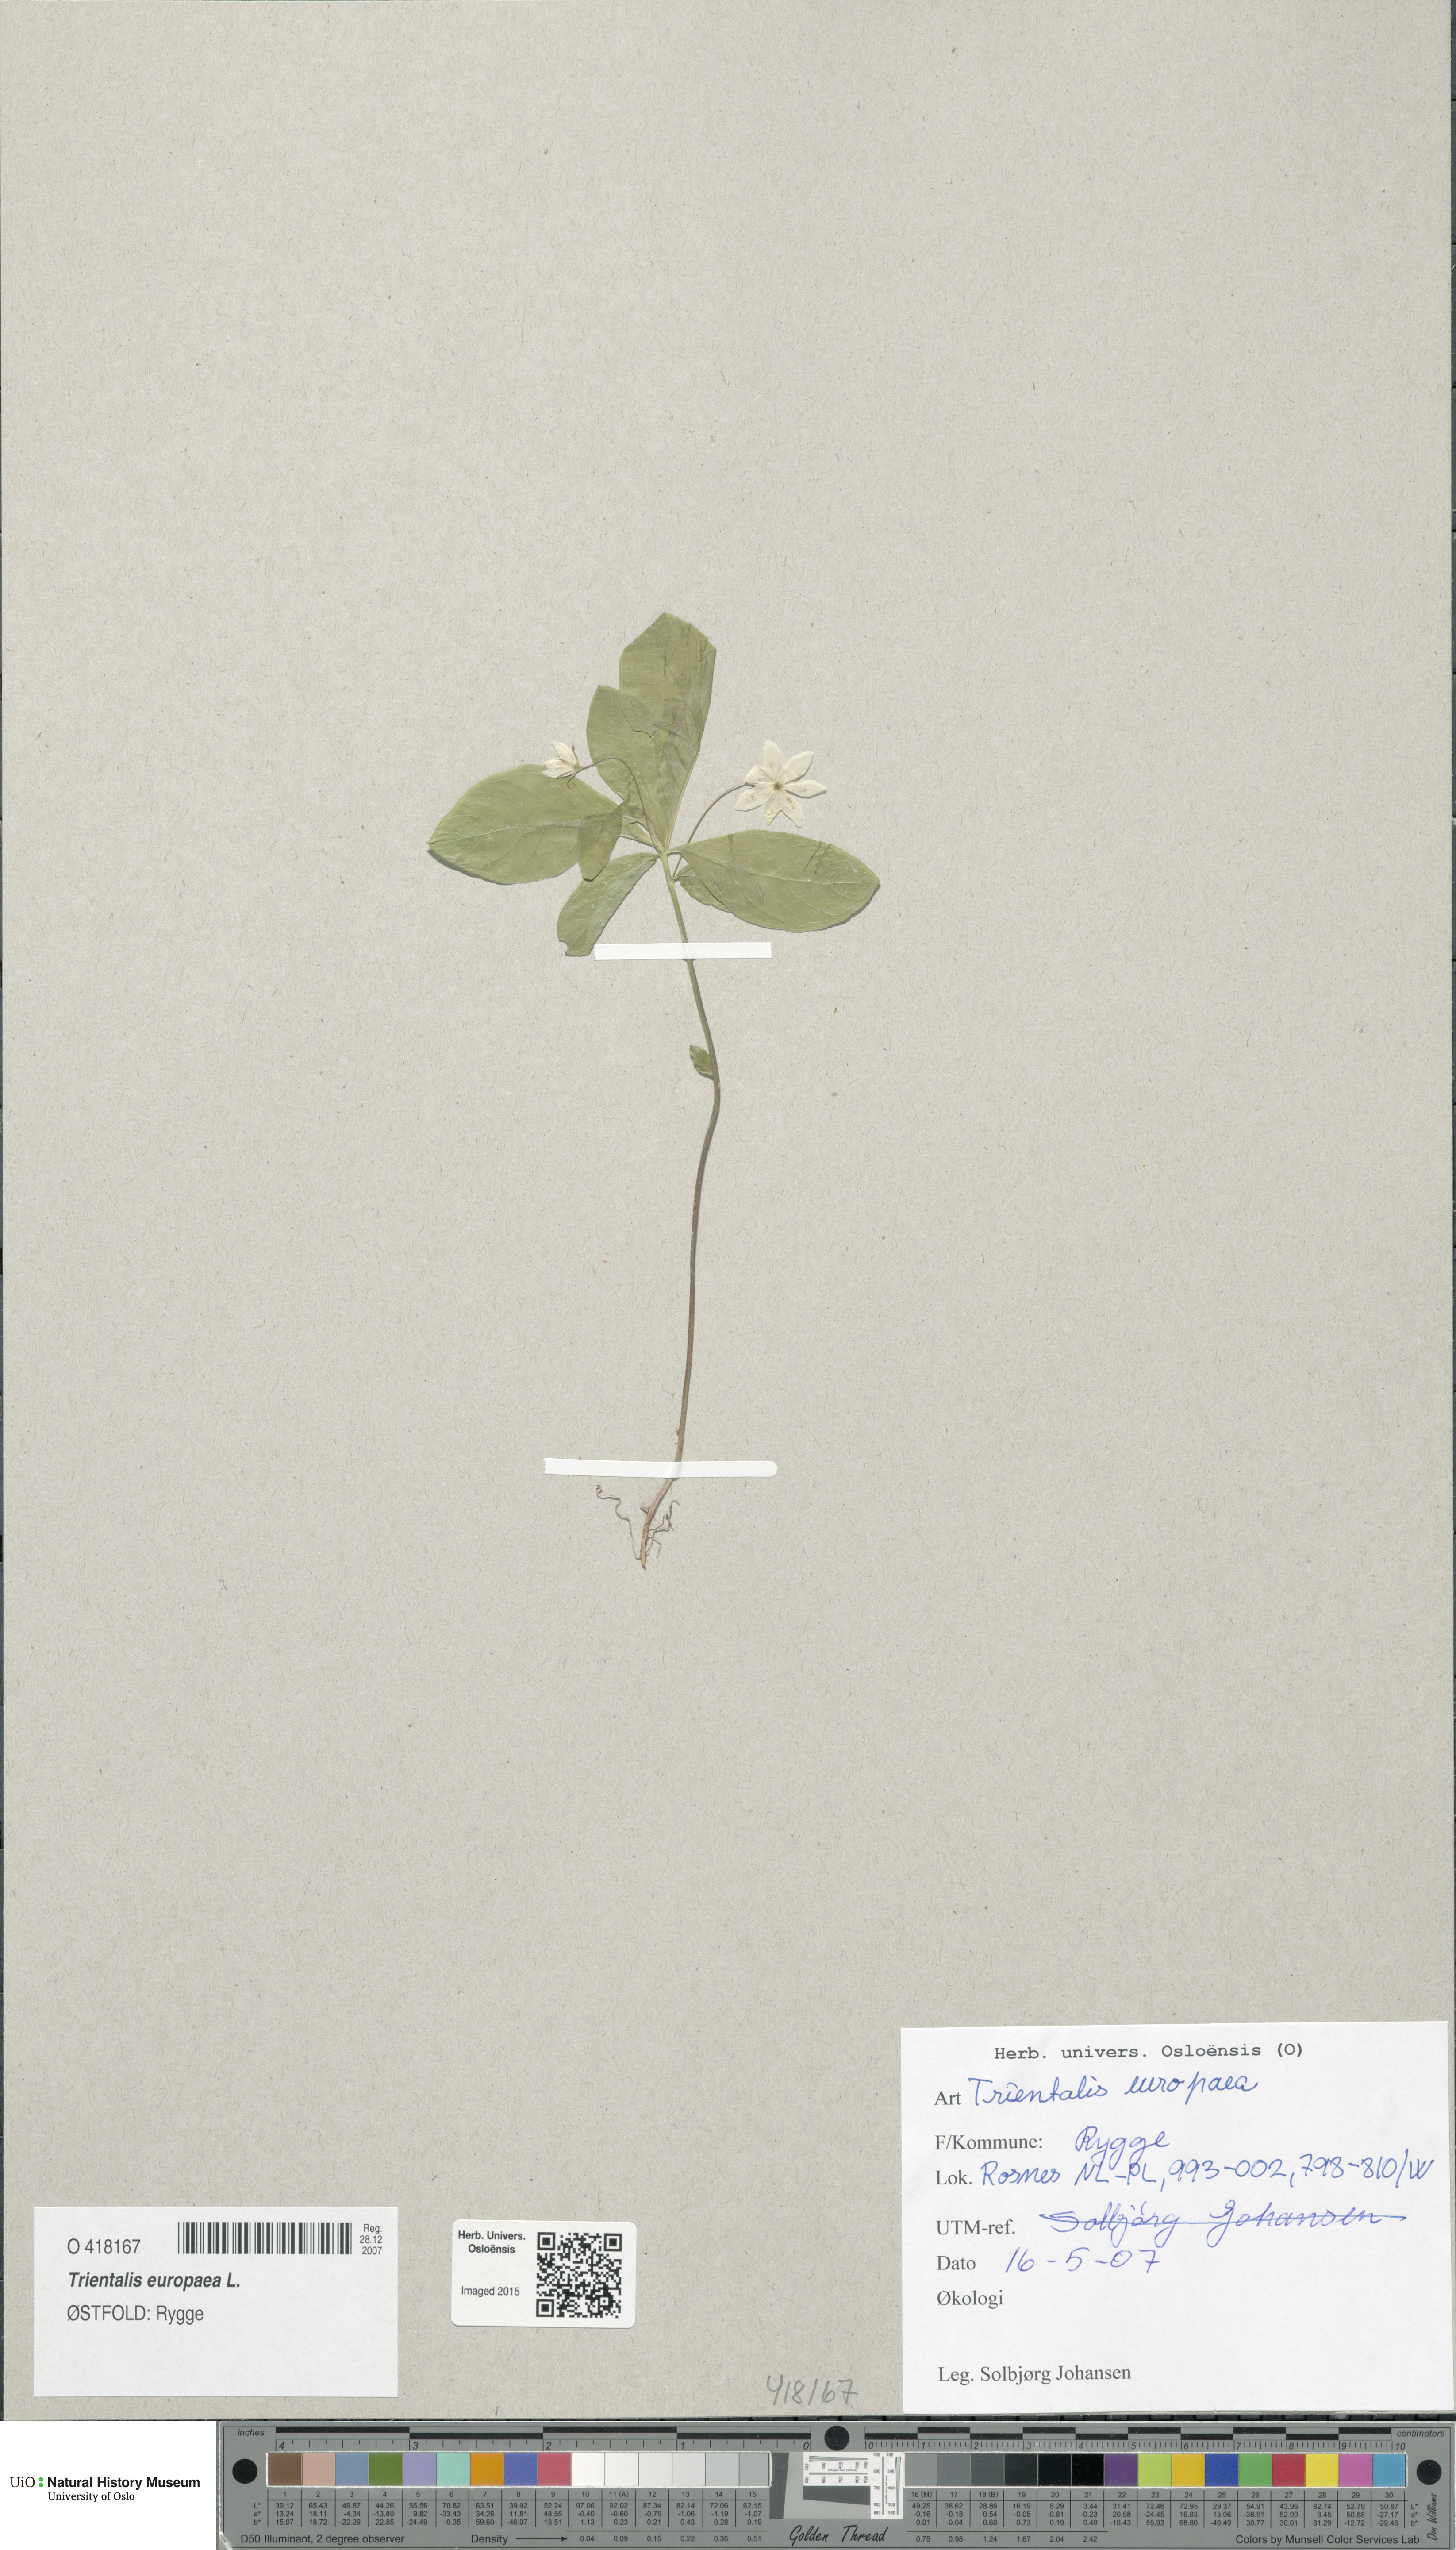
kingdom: Plantae
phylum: Tracheophyta
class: Magnoliopsida
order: Ericales
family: Primulaceae
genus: Lysimachia
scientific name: Lysimachia europaea
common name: Arctic starflower
